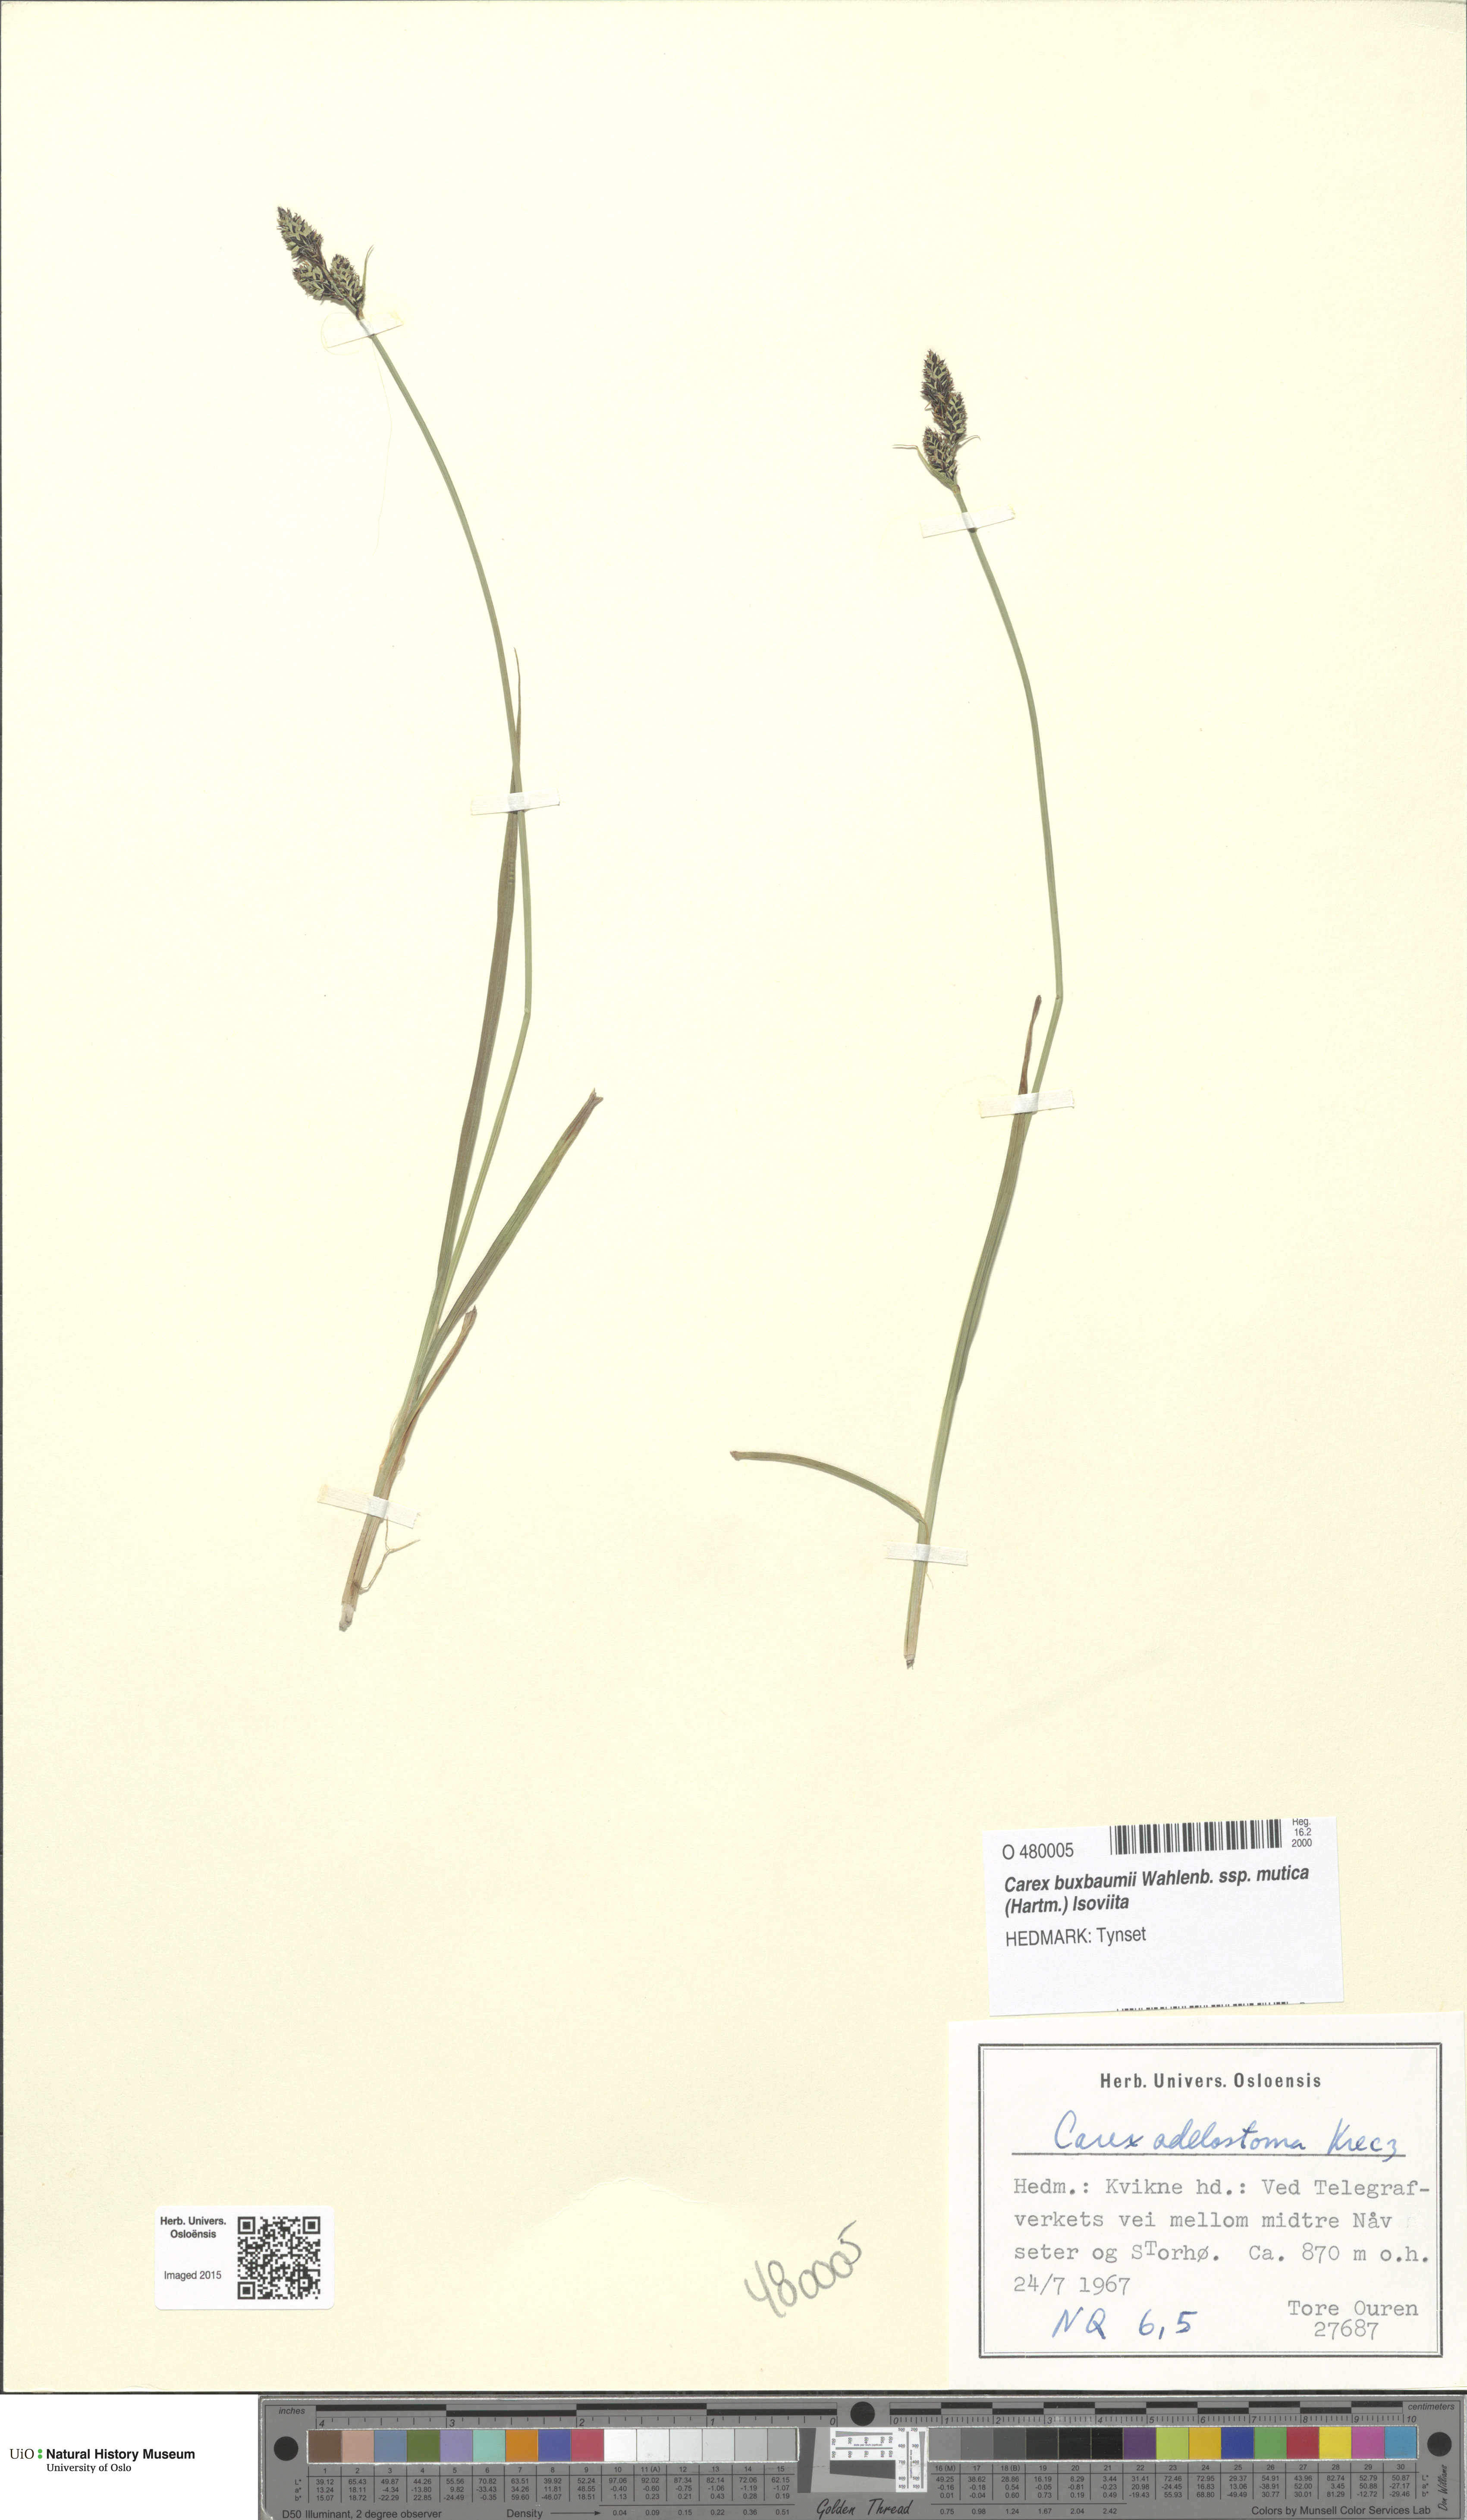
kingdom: Plantae
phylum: Tracheophyta
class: Liliopsida
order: Poales
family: Cyperaceae
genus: Carex
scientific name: Carex adelostoma
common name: Circumpolar sedge
